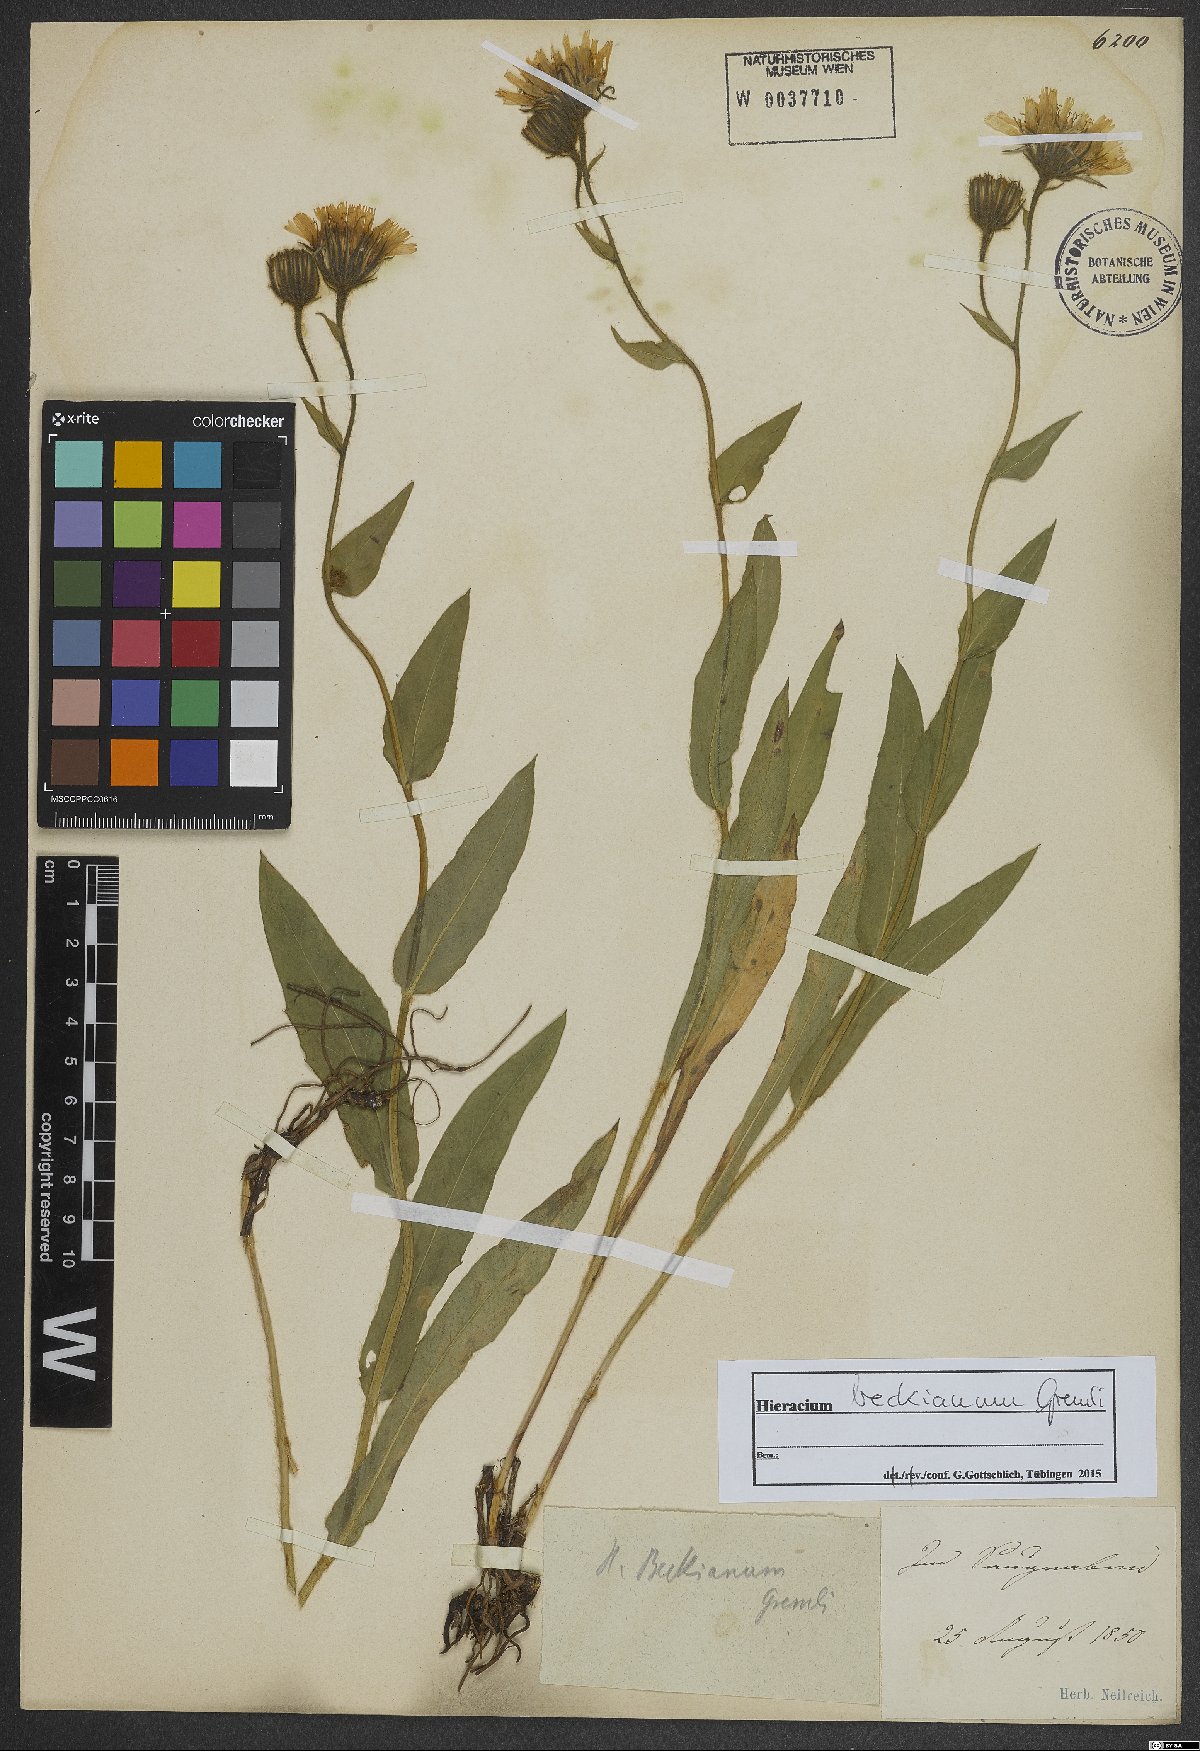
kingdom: Plantae
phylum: Tracheophyta
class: Magnoliopsida
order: Asterales
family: Asteraceae
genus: Hieracium
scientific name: Hieracium beckianum
